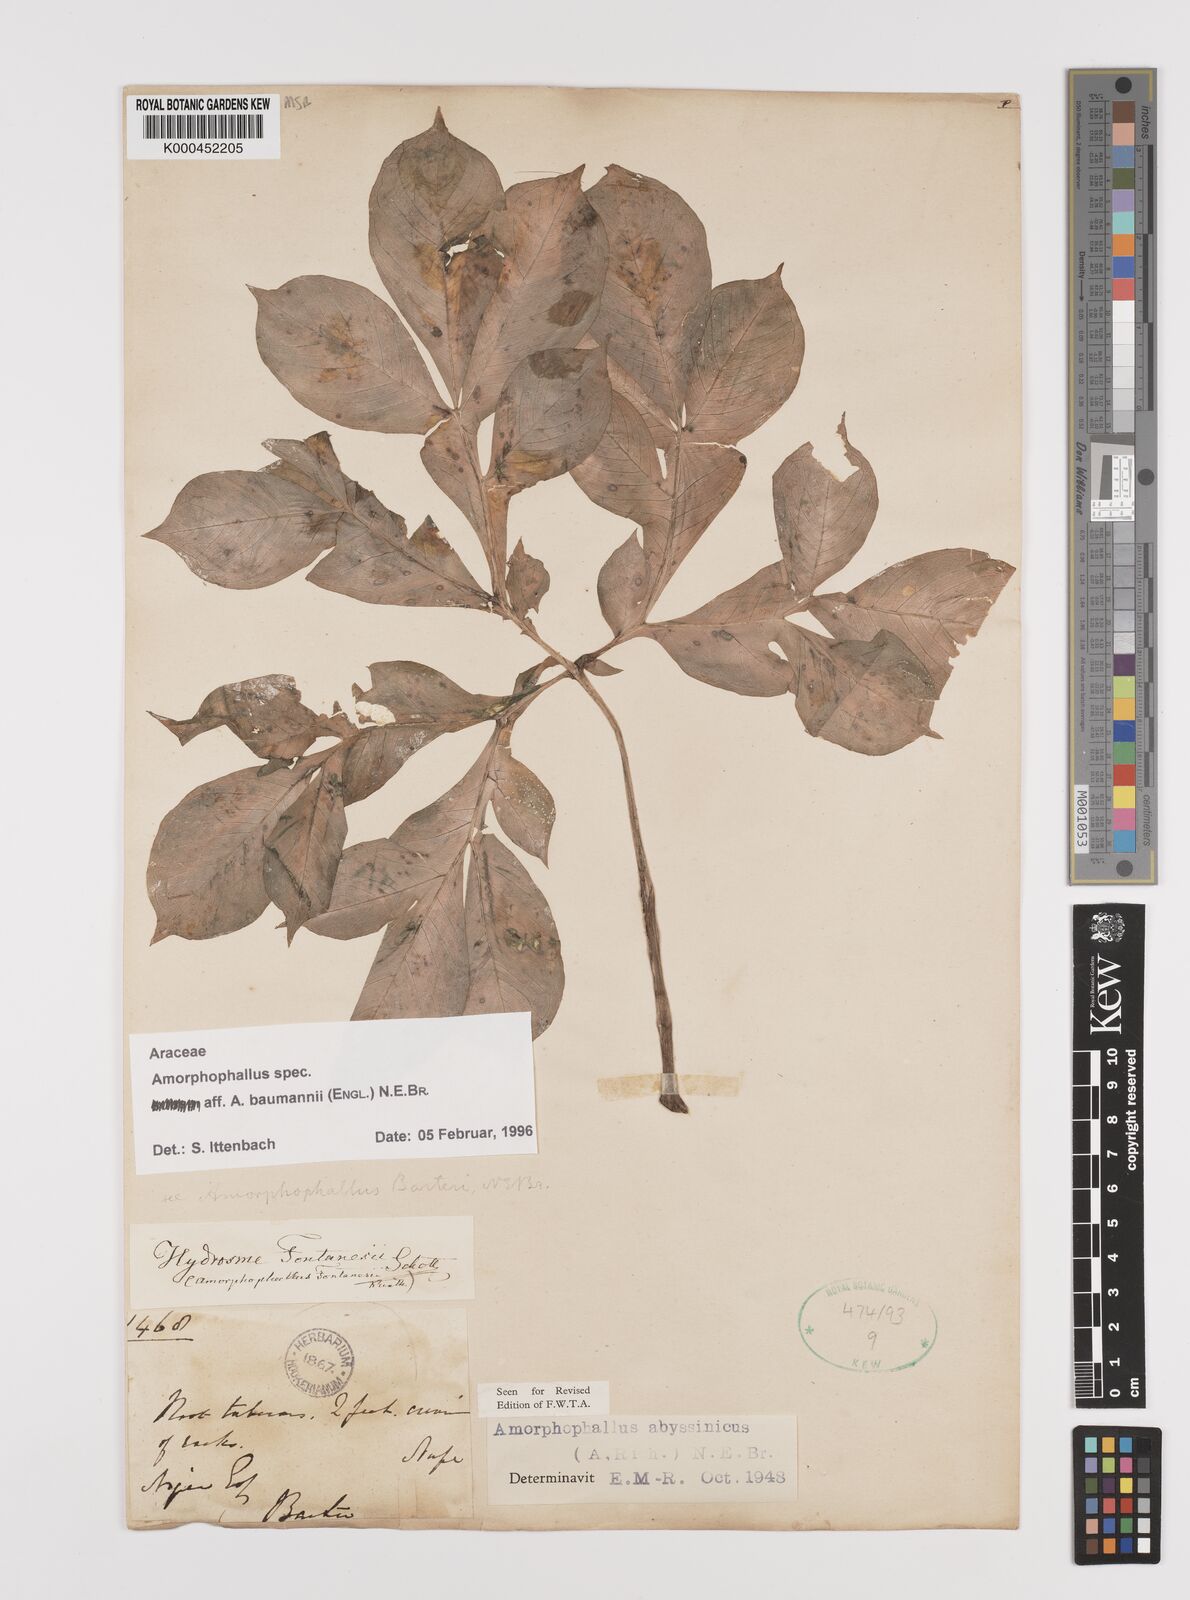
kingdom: Plantae
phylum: Tracheophyta
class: Liliopsida
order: Alismatales
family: Araceae
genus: Amorphophallus
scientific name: Amorphophallus baumannii
